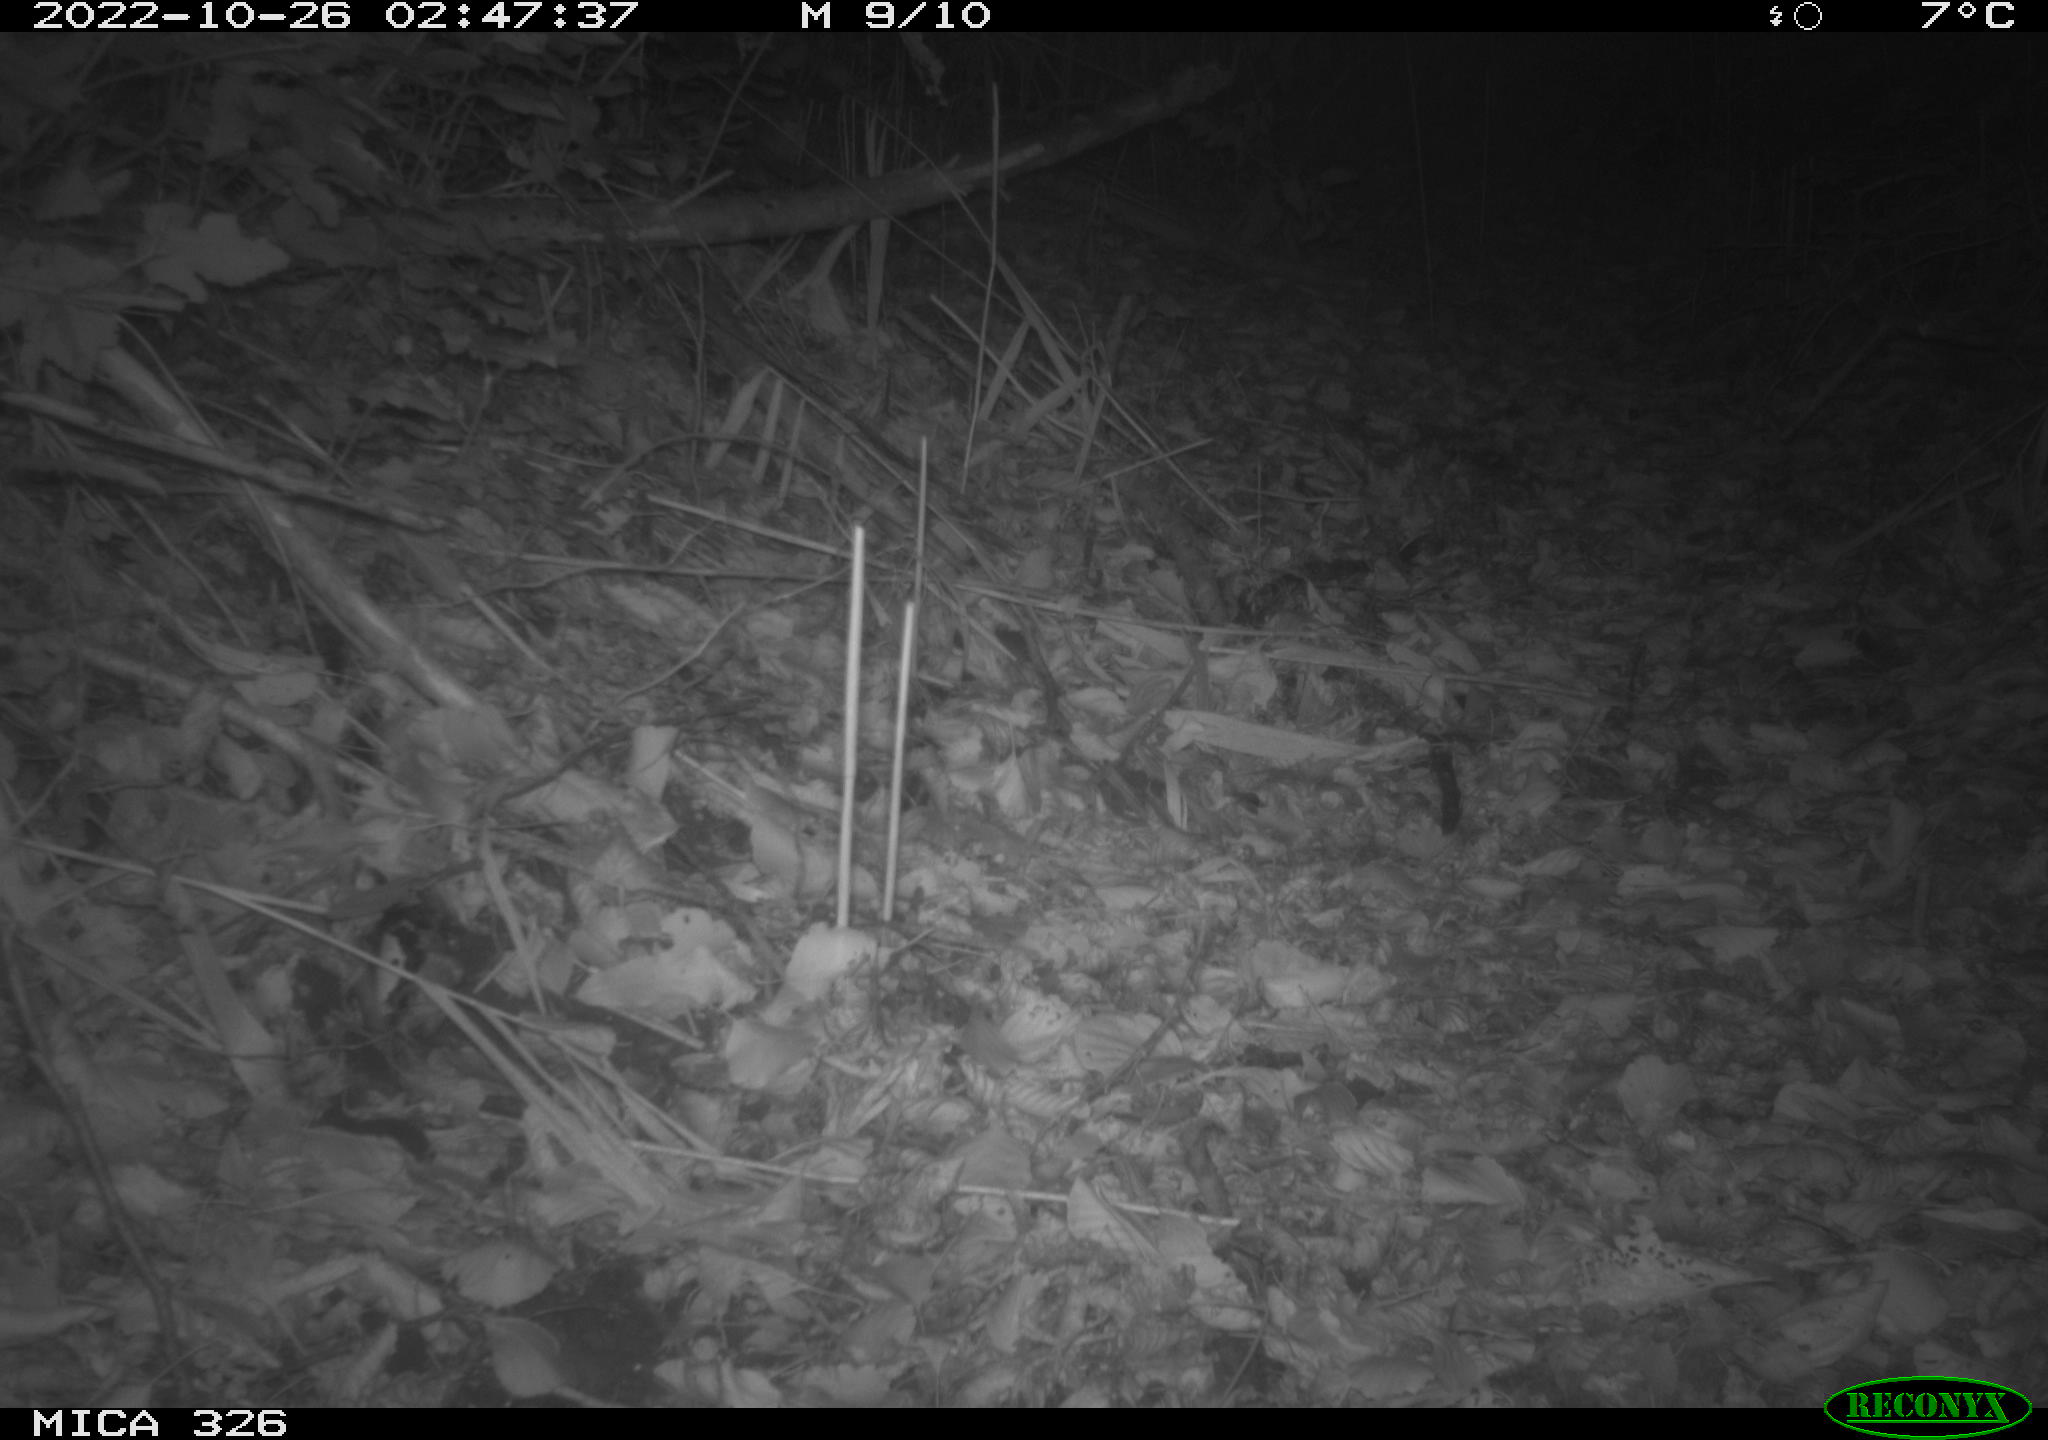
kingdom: Animalia
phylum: Chordata
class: Mammalia
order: Rodentia
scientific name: Rodentia
